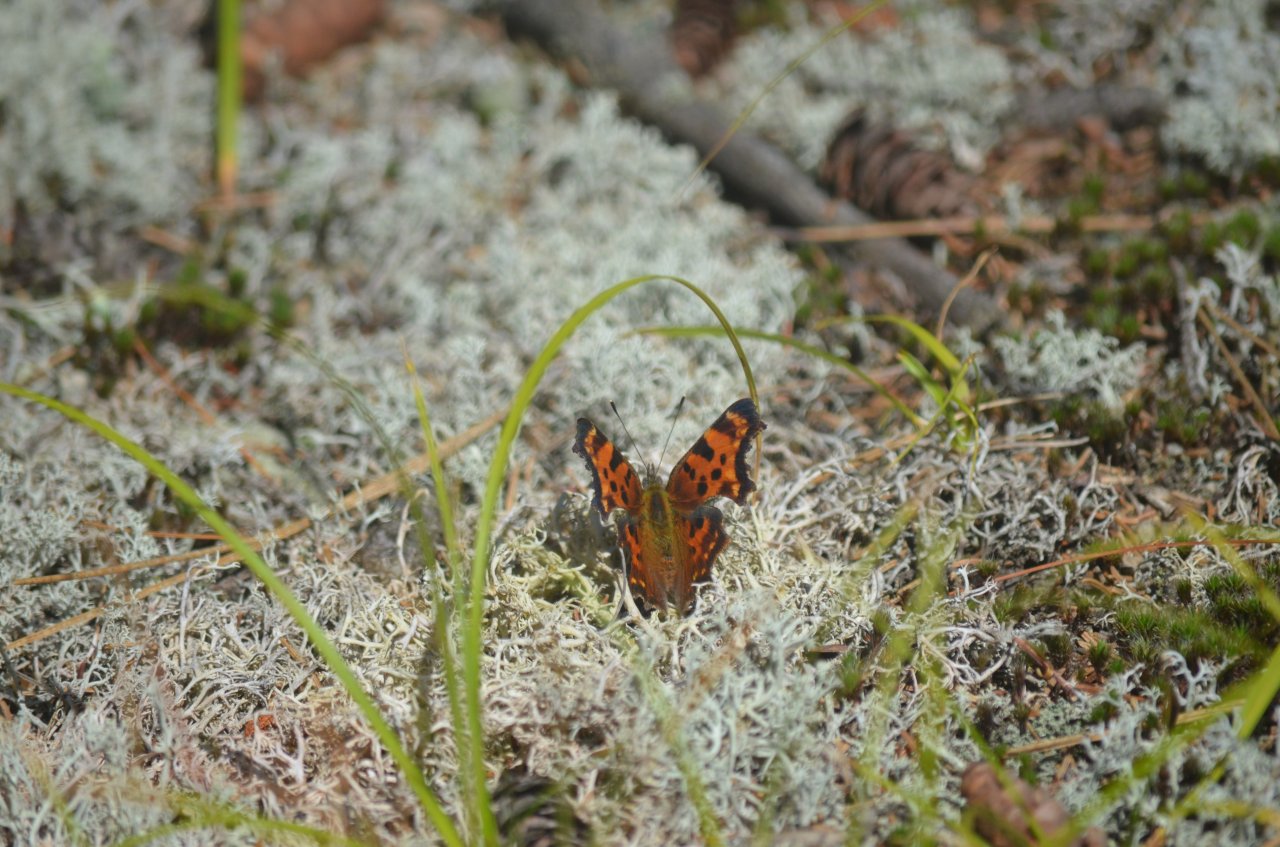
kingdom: Animalia
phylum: Arthropoda
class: Insecta
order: Lepidoptera
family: Nymphalidae
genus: Polygonia
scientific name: Polygonia faunus
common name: Green Comma
